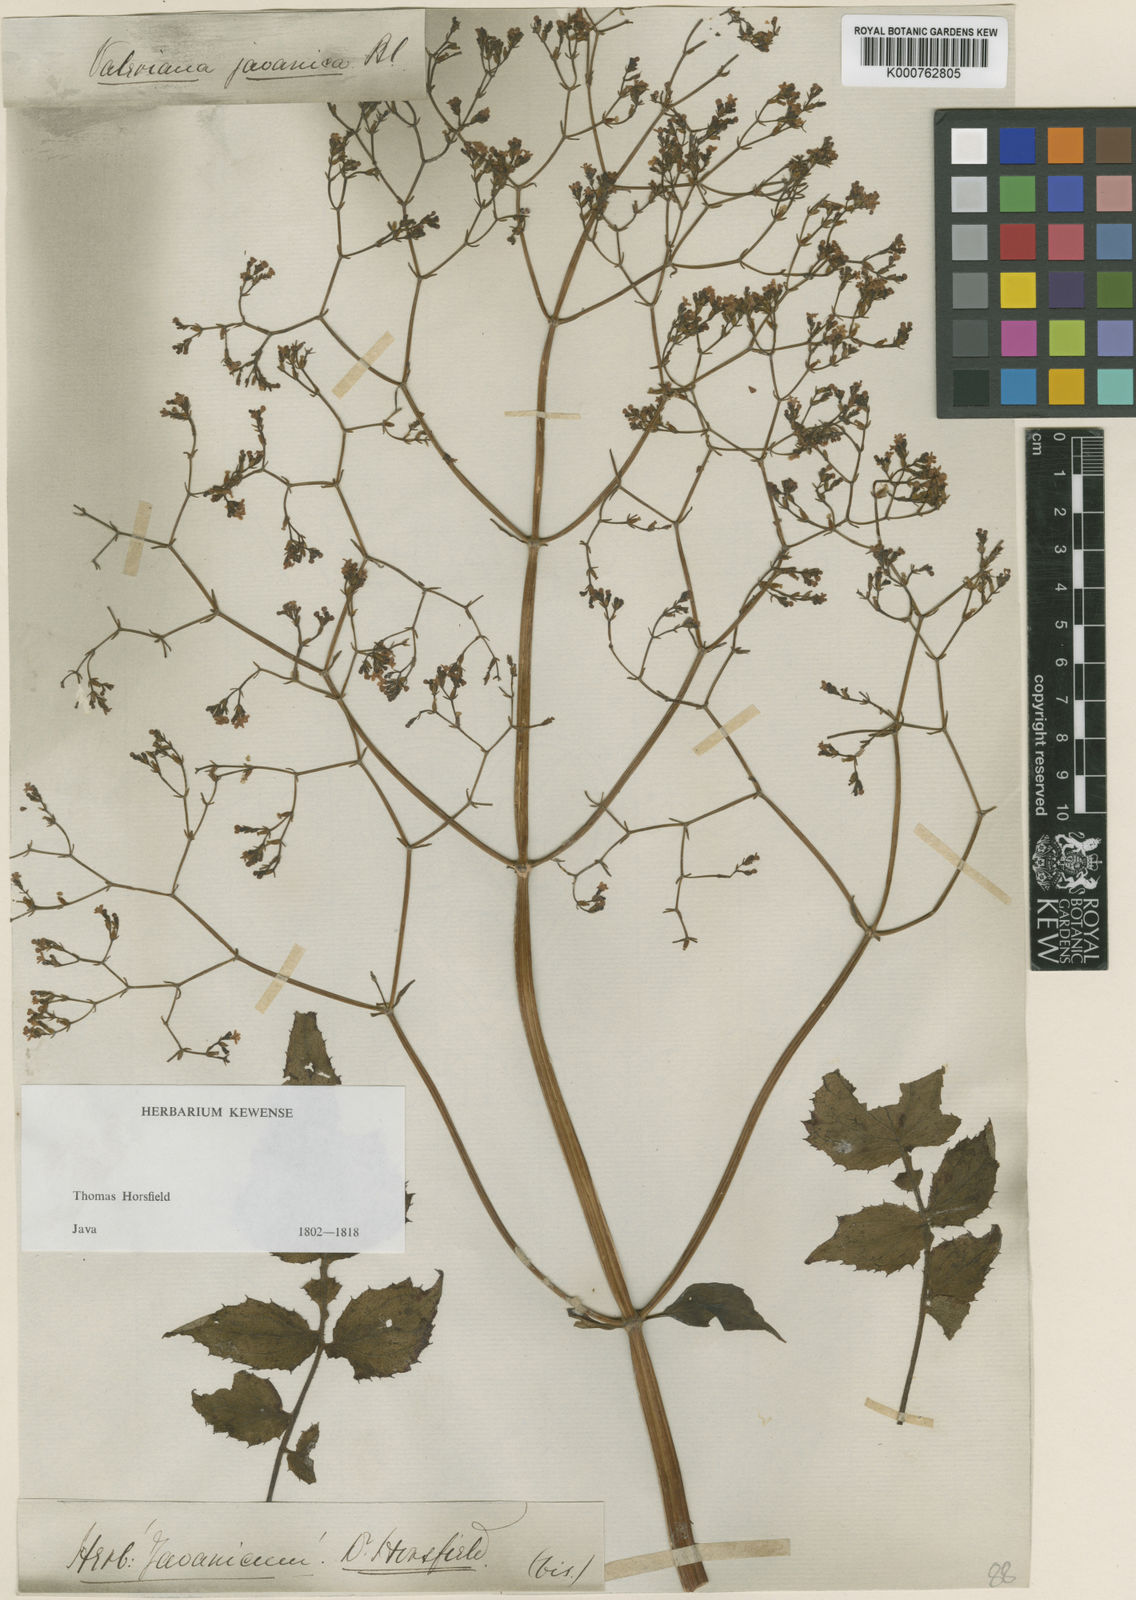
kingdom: Plantae
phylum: Tracheophyta
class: Magnoliopsida
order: Dipsacales
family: Caprifoliaceae
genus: Valeriana
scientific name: Valeriana hardwickei
